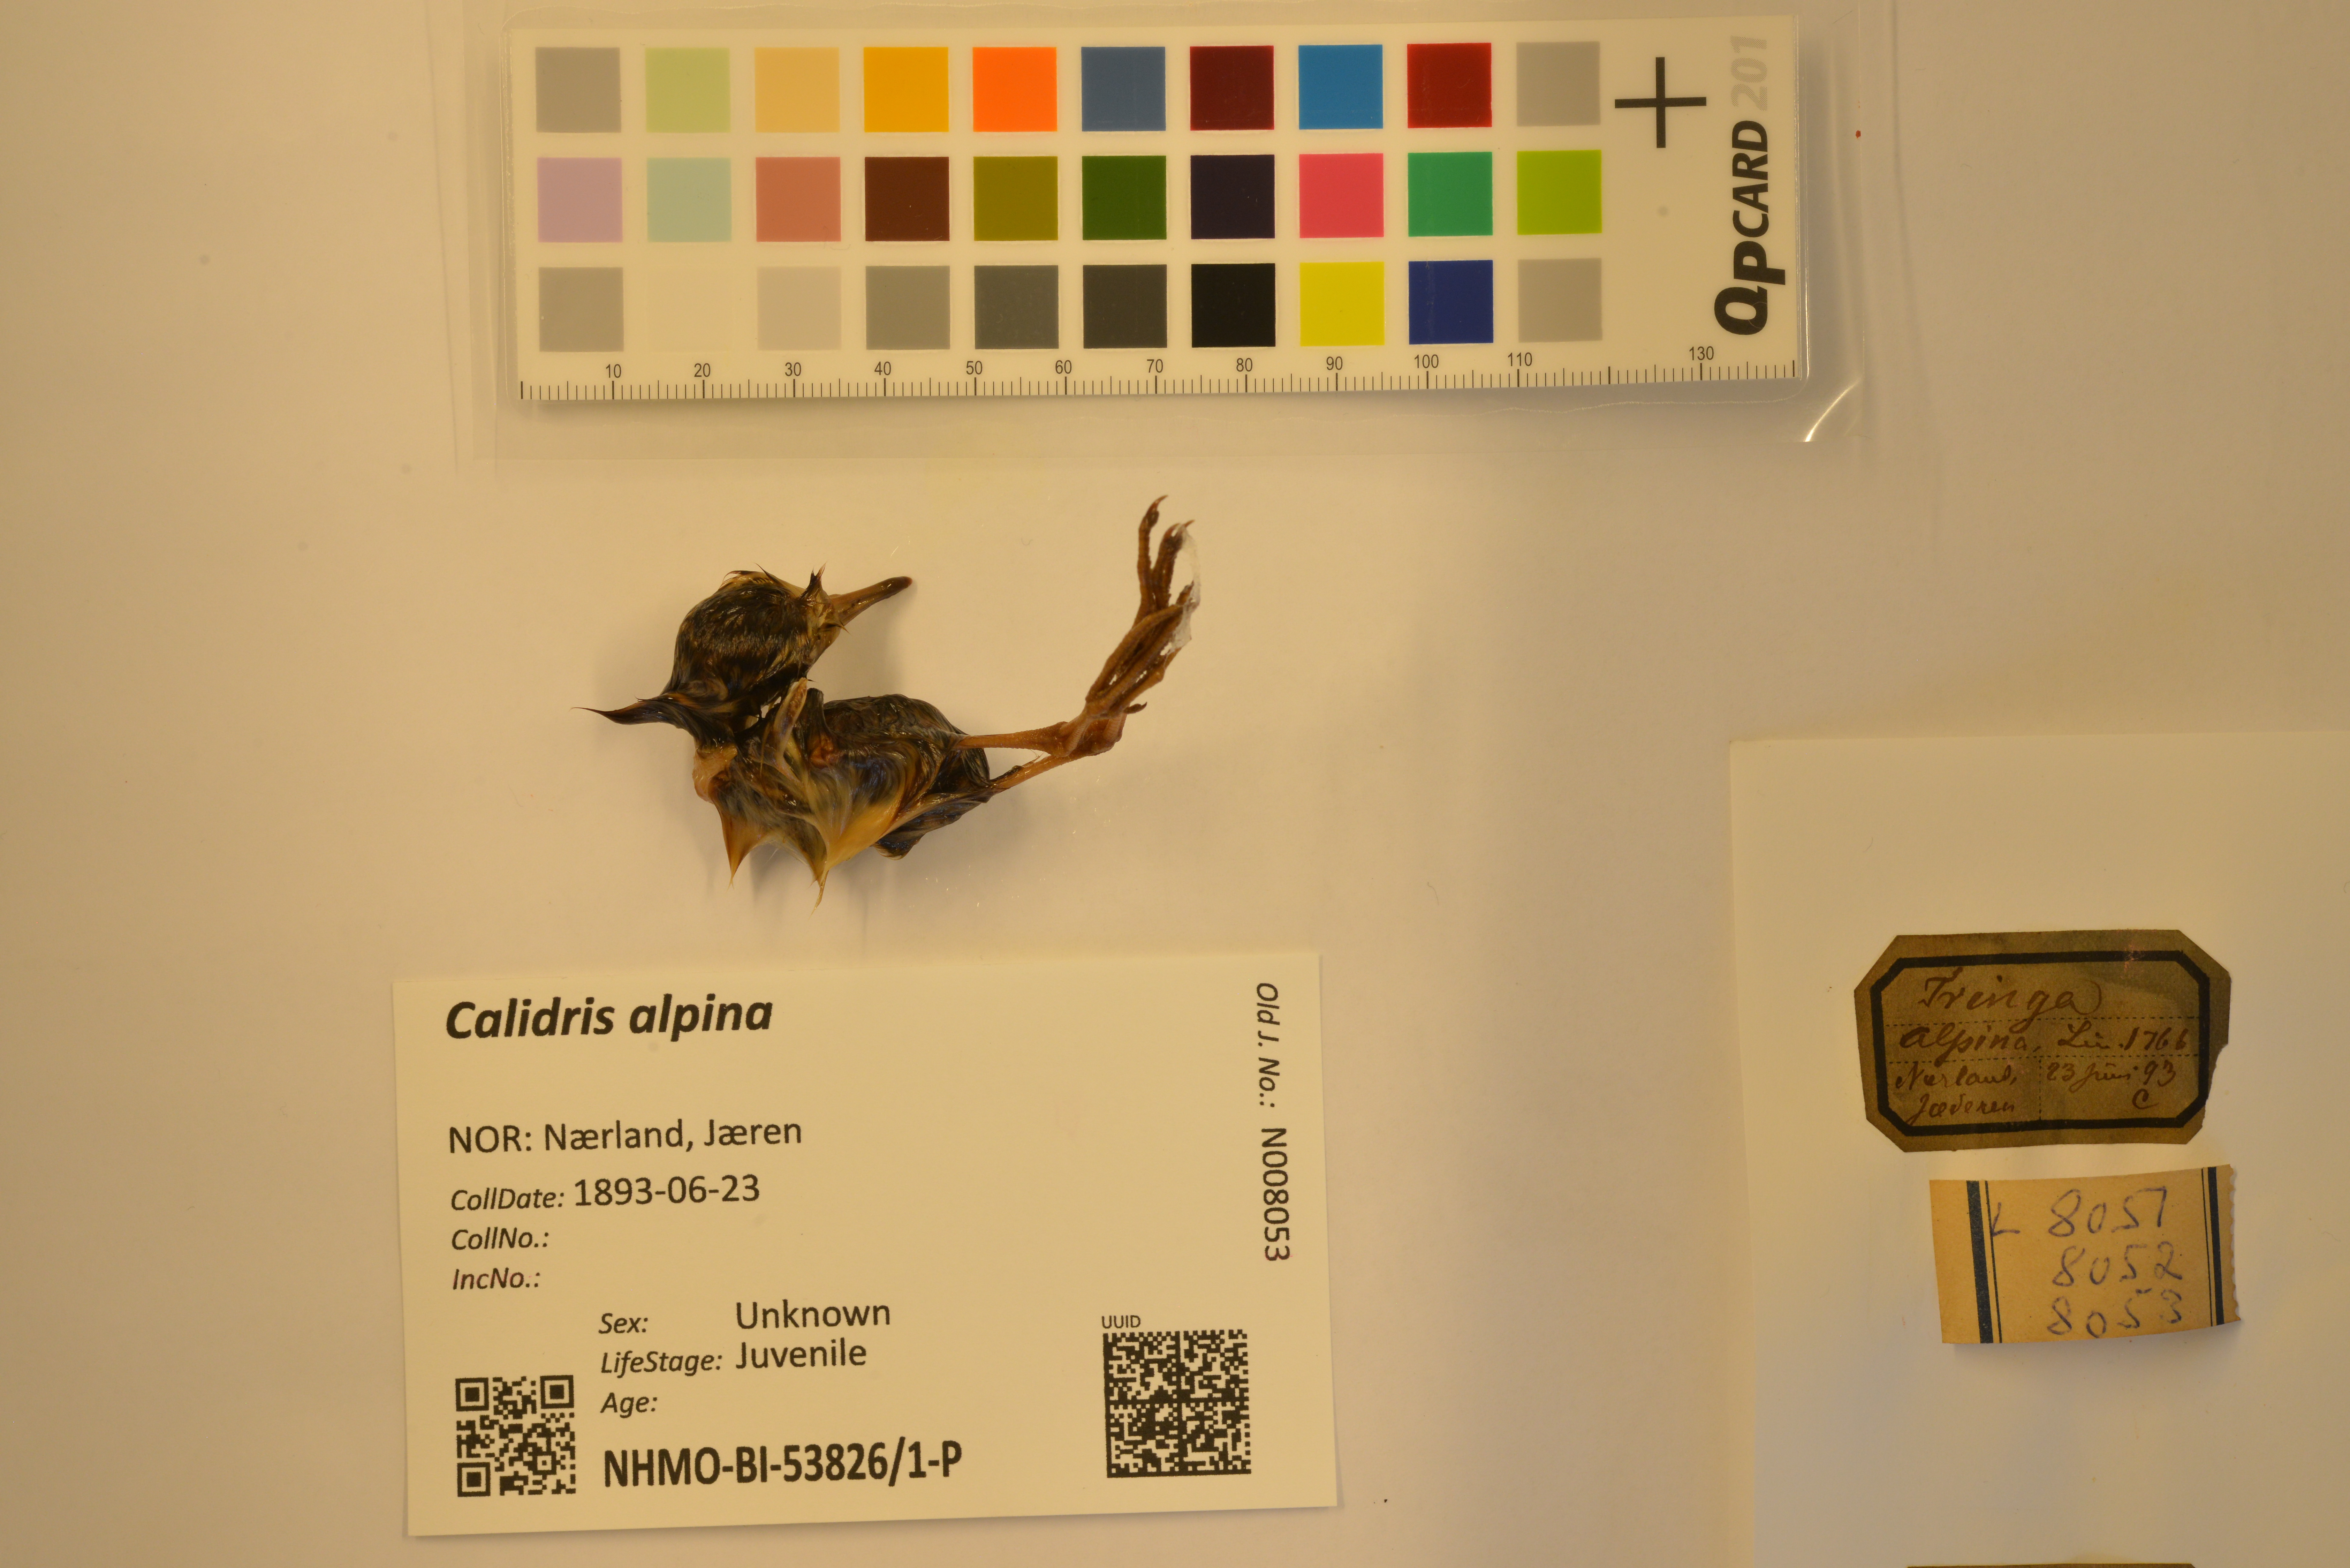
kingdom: Animalia
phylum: Chordata
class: Aves
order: Charadriiformes
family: Scolopacidae
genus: Calidris
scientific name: Calidris alpina
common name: Dunlin
